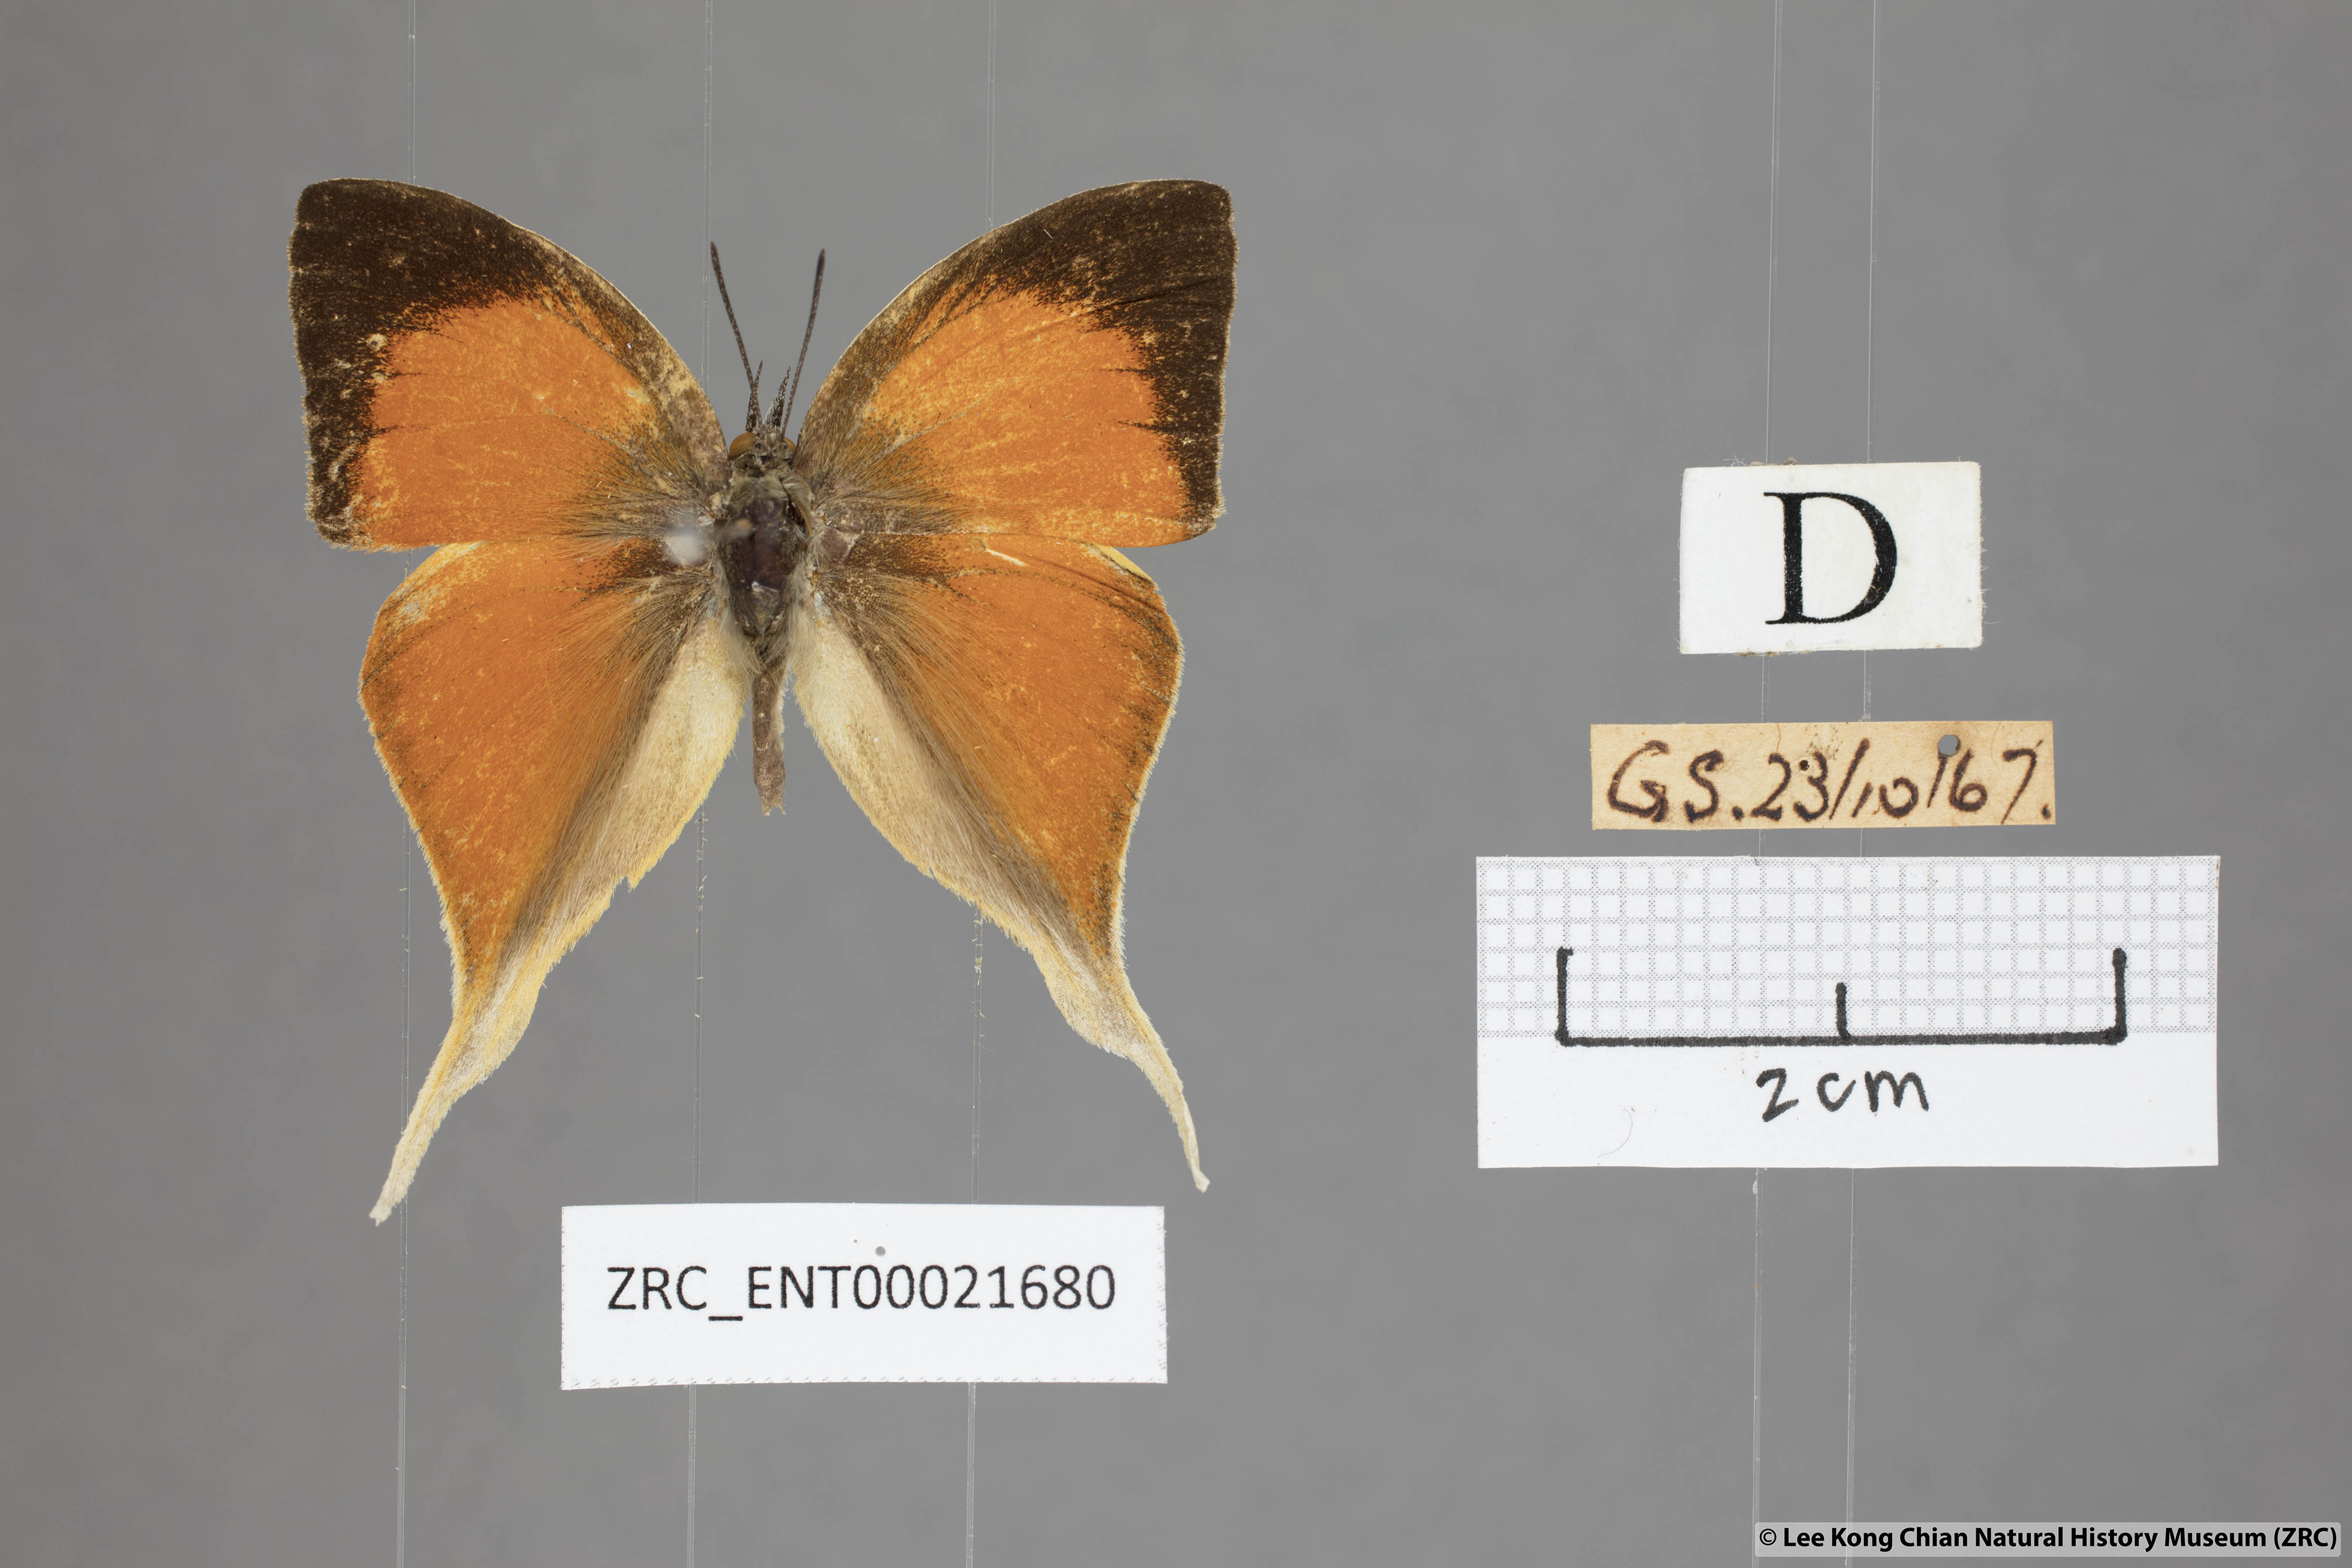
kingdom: Animalia
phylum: Arthropoda
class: Insecta
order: Lepidoptera
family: Lycaenidae
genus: Loxura
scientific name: Loxura cassiopeia
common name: Malayan yamfly
